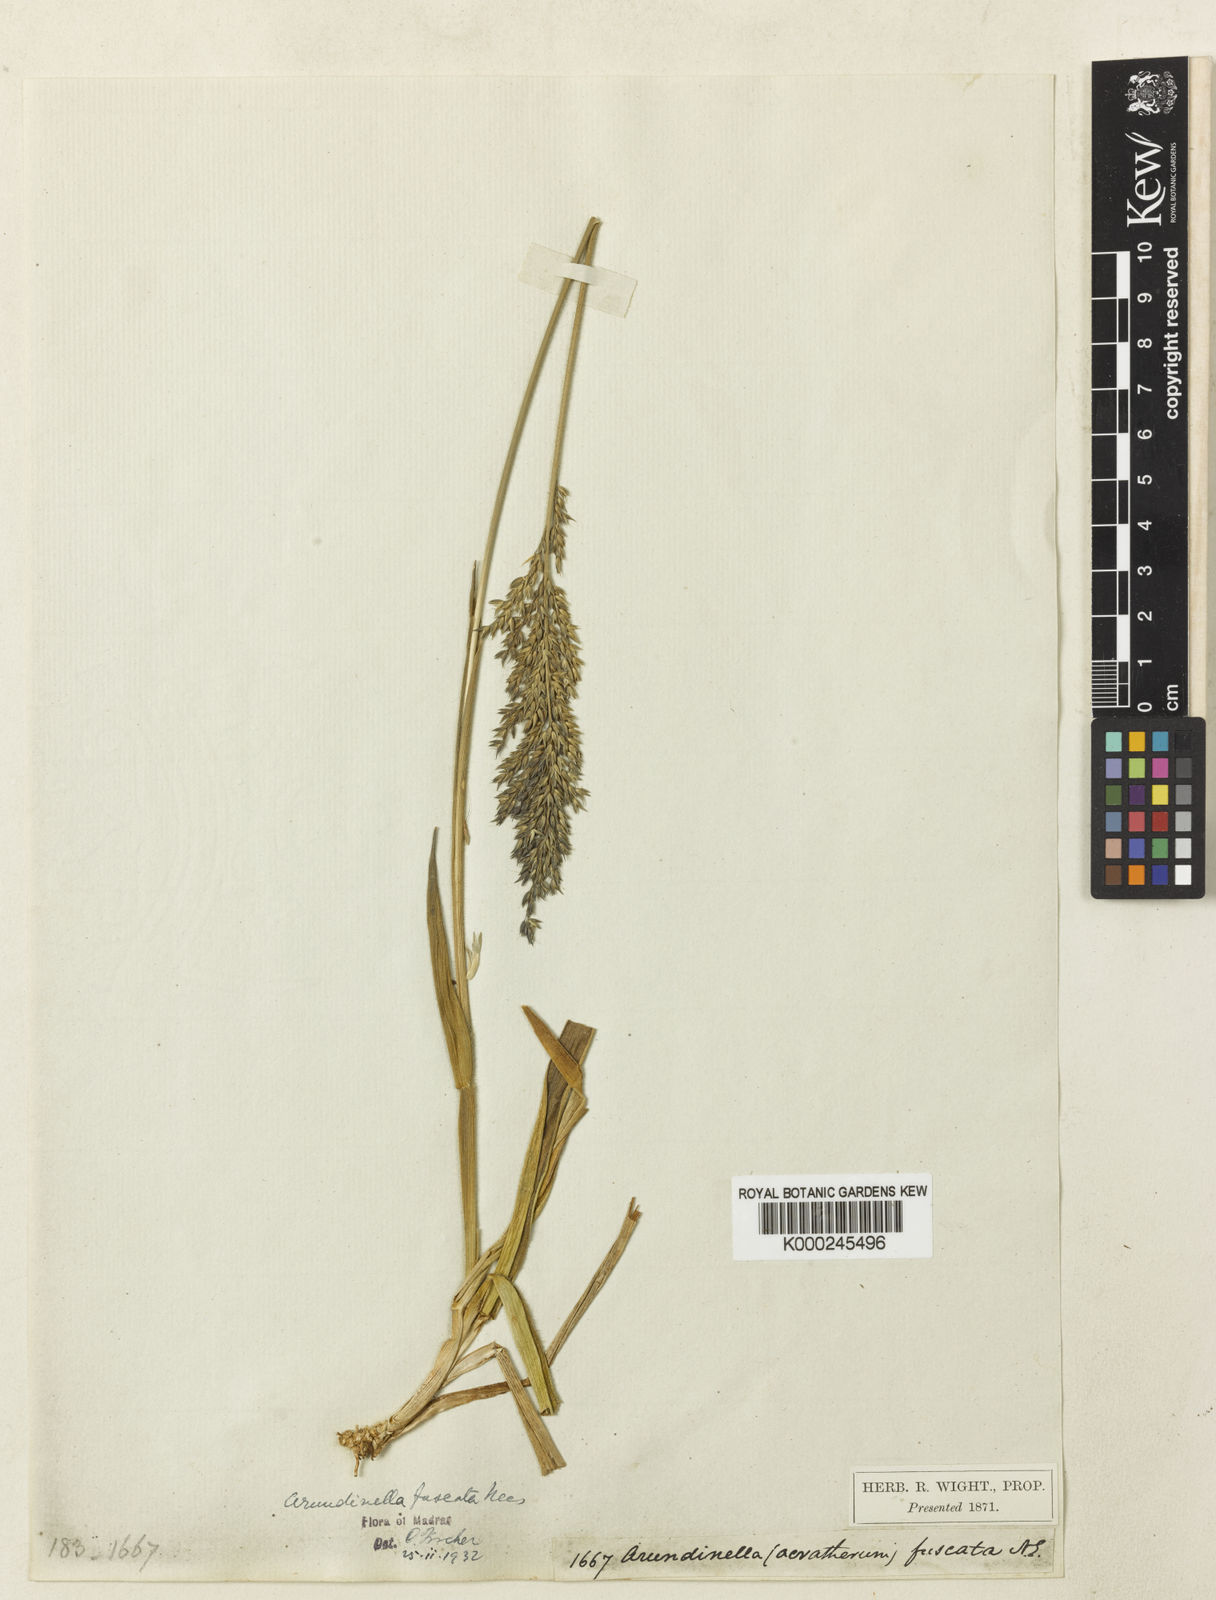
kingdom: Plantae
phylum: Tracheophyta
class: Liliopsida
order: Poales
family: Poaceae
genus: Arundinella
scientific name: Arundinella fuscata
